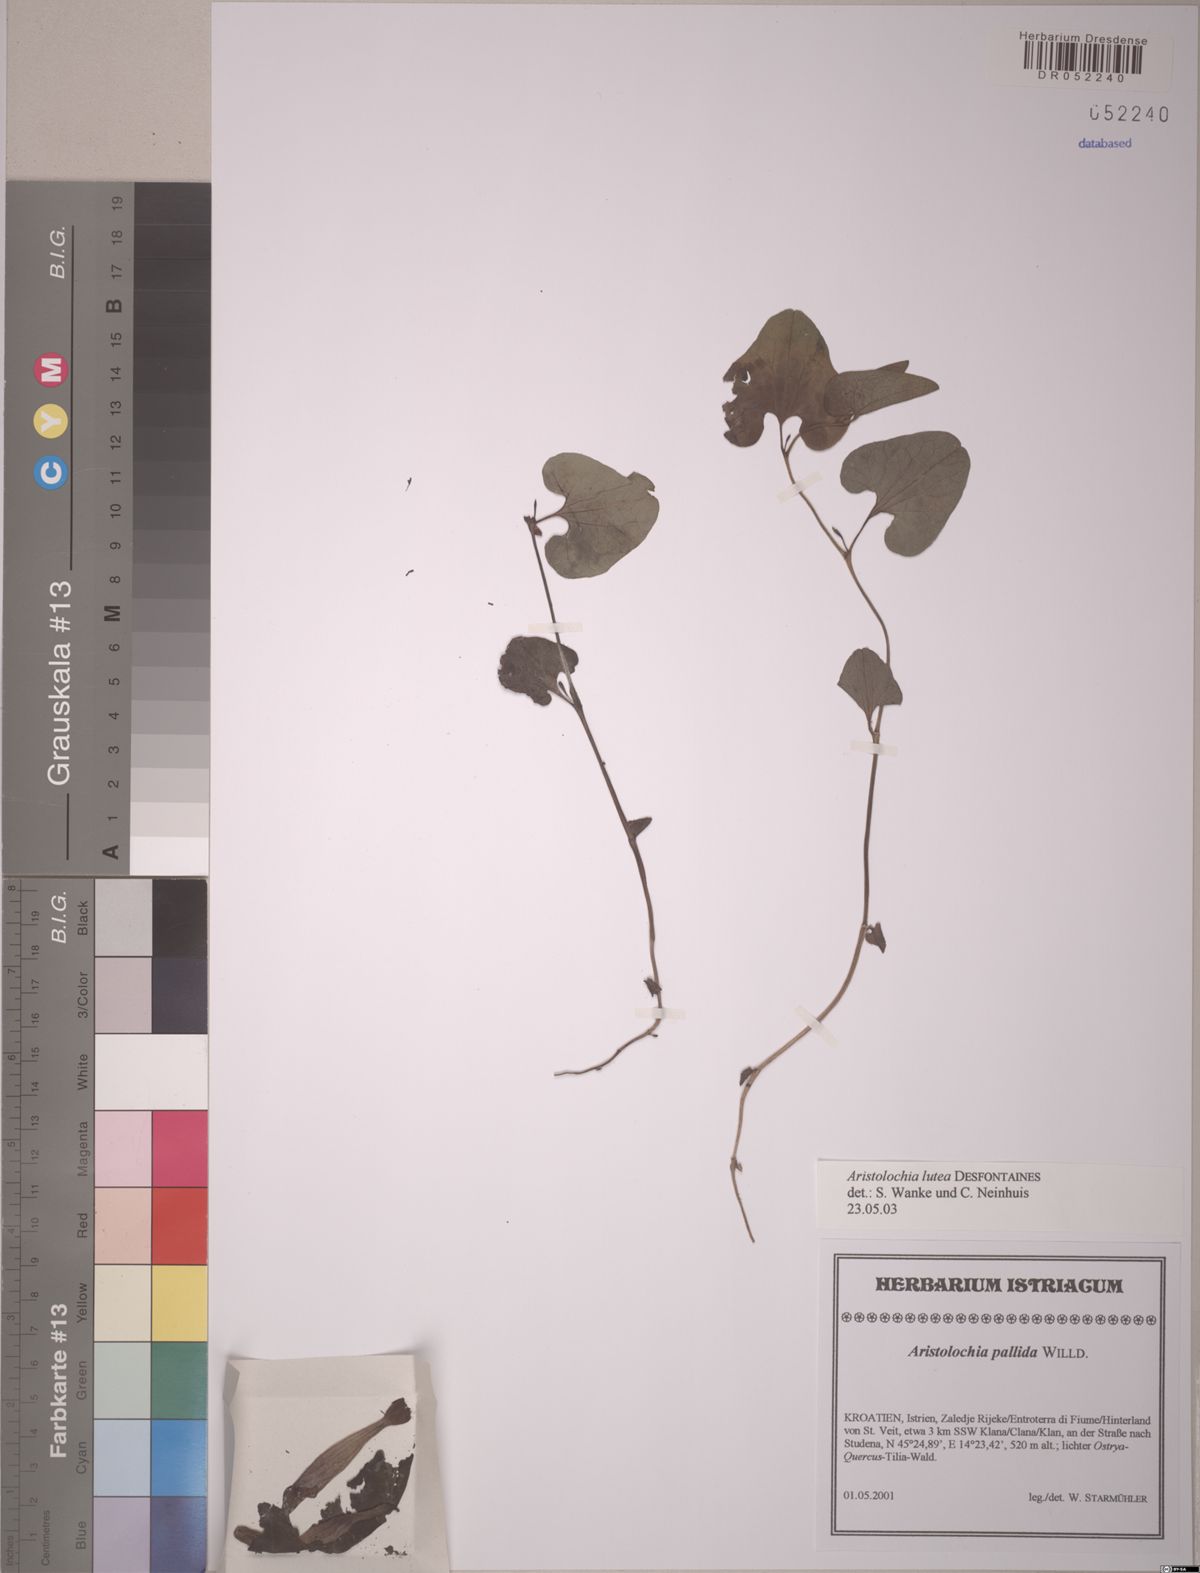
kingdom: Plantae
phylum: Tracheophyta
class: Magnoliopsida
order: Piperales
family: Aristolochiaceae
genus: Aristolochia
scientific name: Aristolochia lutea
